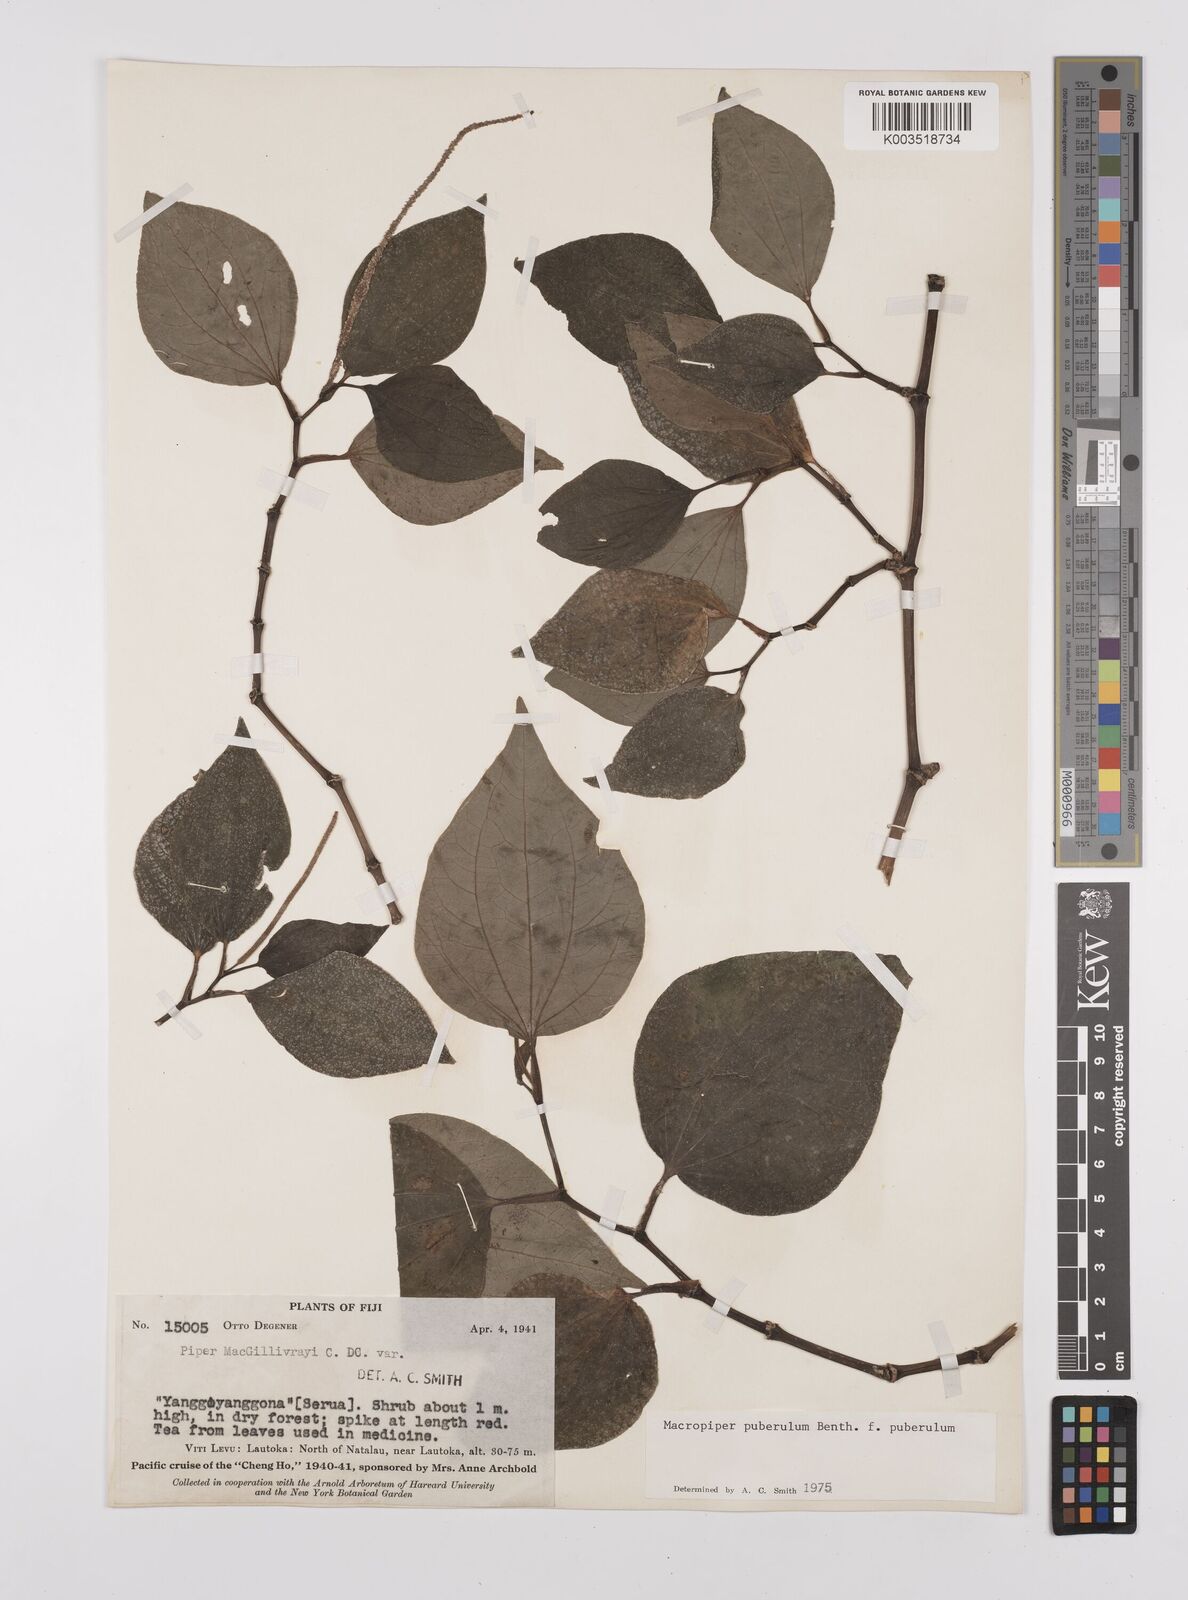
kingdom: Plantae
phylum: Tracheophyta
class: Magnoliopsida
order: Piperales
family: Piperaceae
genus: Macropiper
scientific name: Macropiper puberulum
